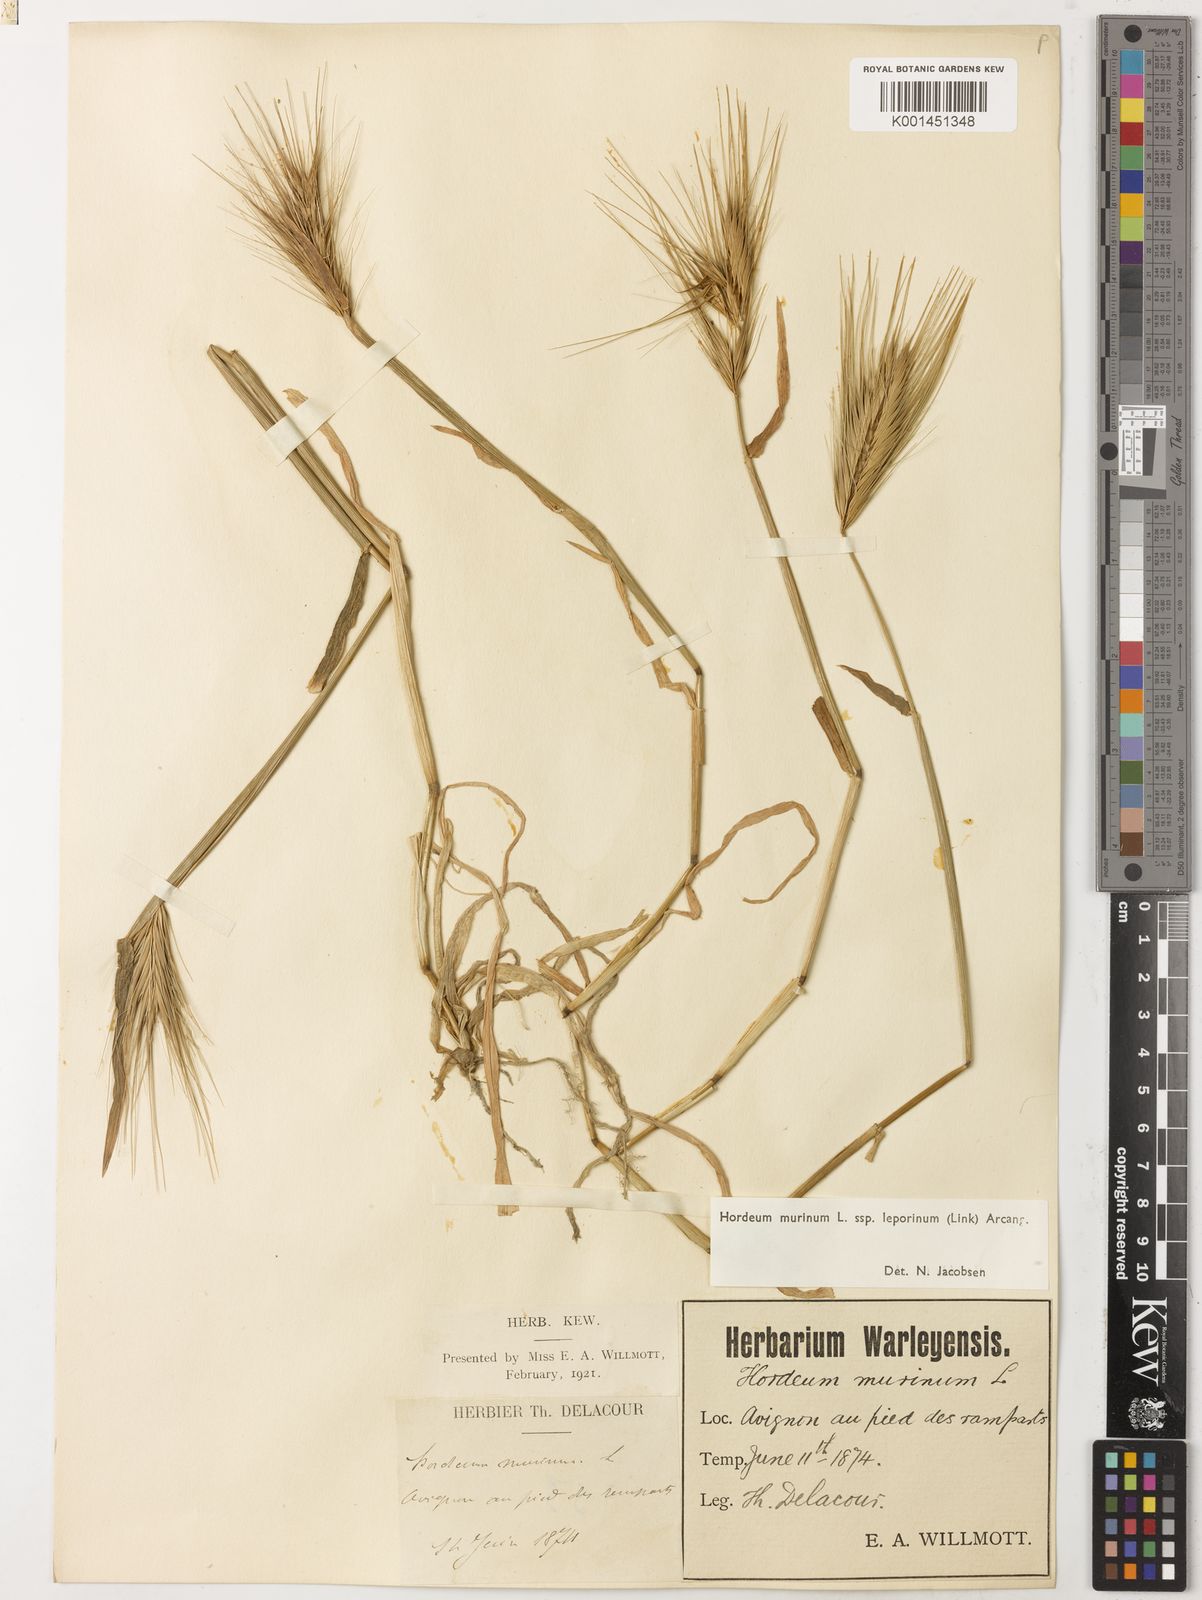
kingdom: Plantae
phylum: Tracheophyta
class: Liliopsida
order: Poales
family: Poaceae
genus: Hordeum
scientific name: Hordeum murinum
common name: Wall barley
